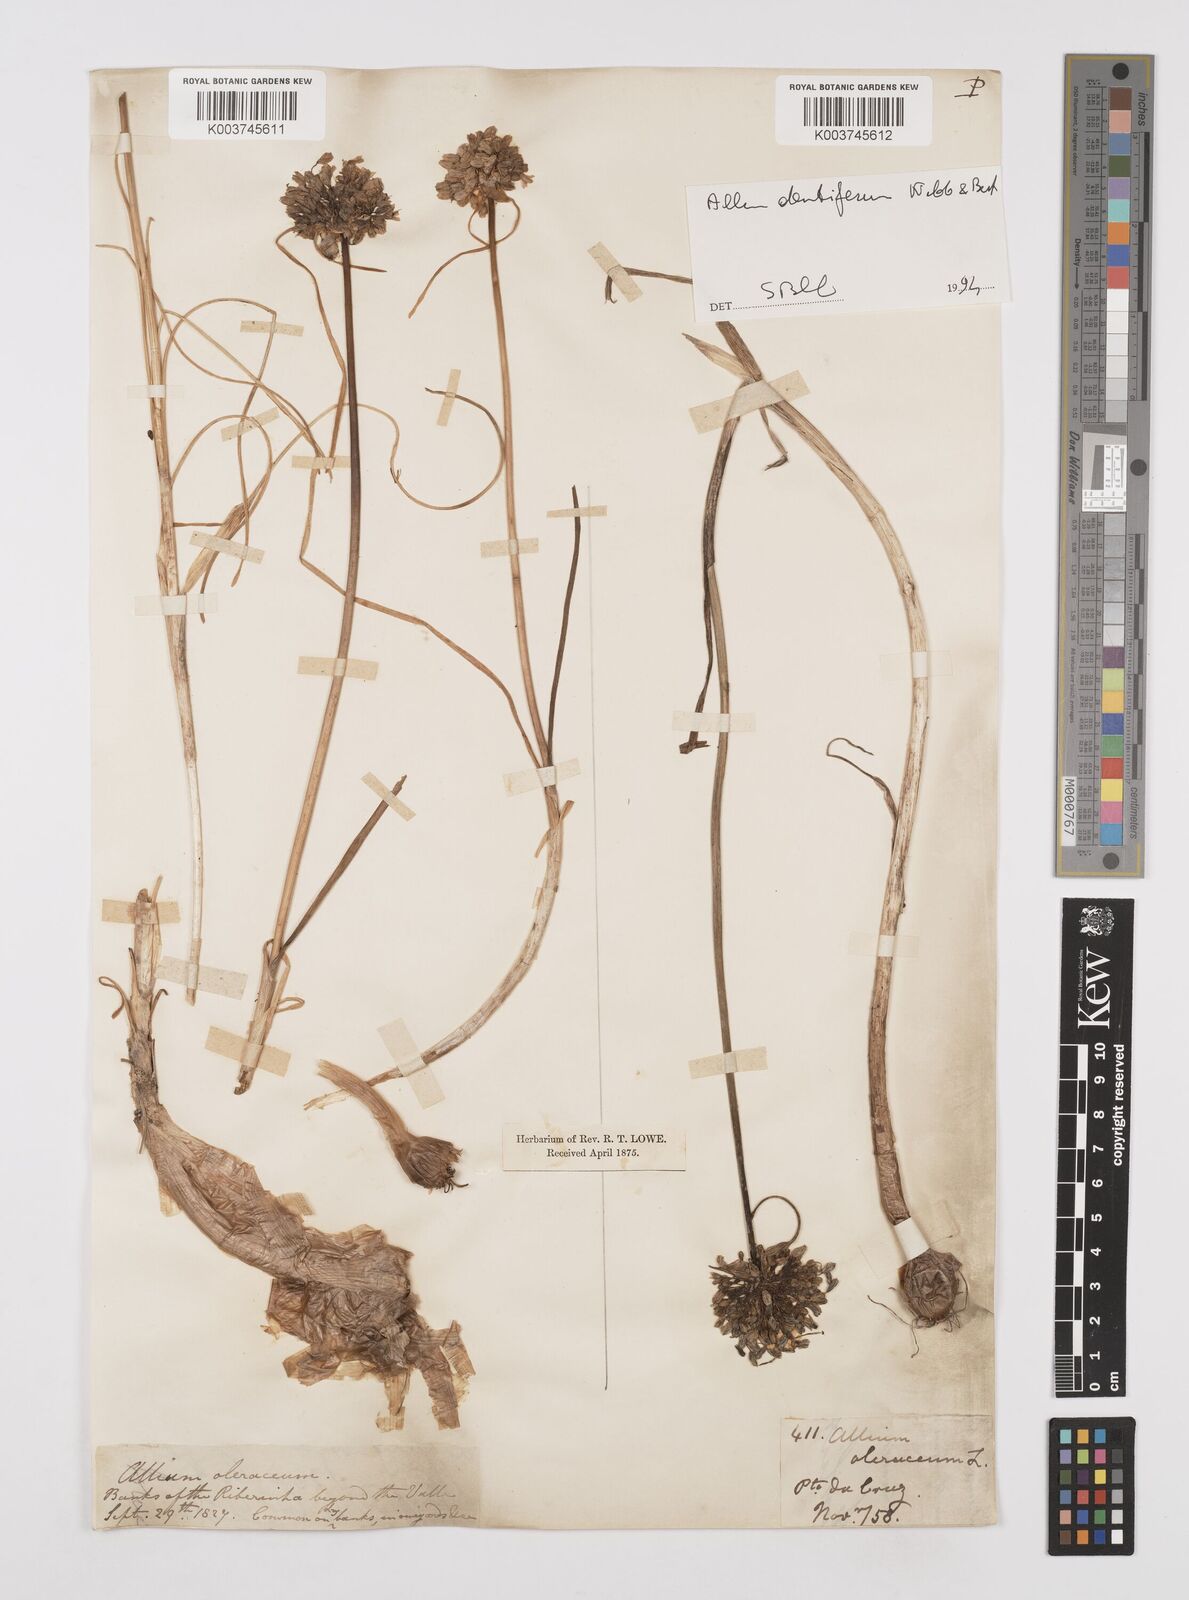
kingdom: Plantae
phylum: Tracheophyta
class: Liliopsida
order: Asparagales
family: Amaryllidaceae
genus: Allium
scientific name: Allium flavum
